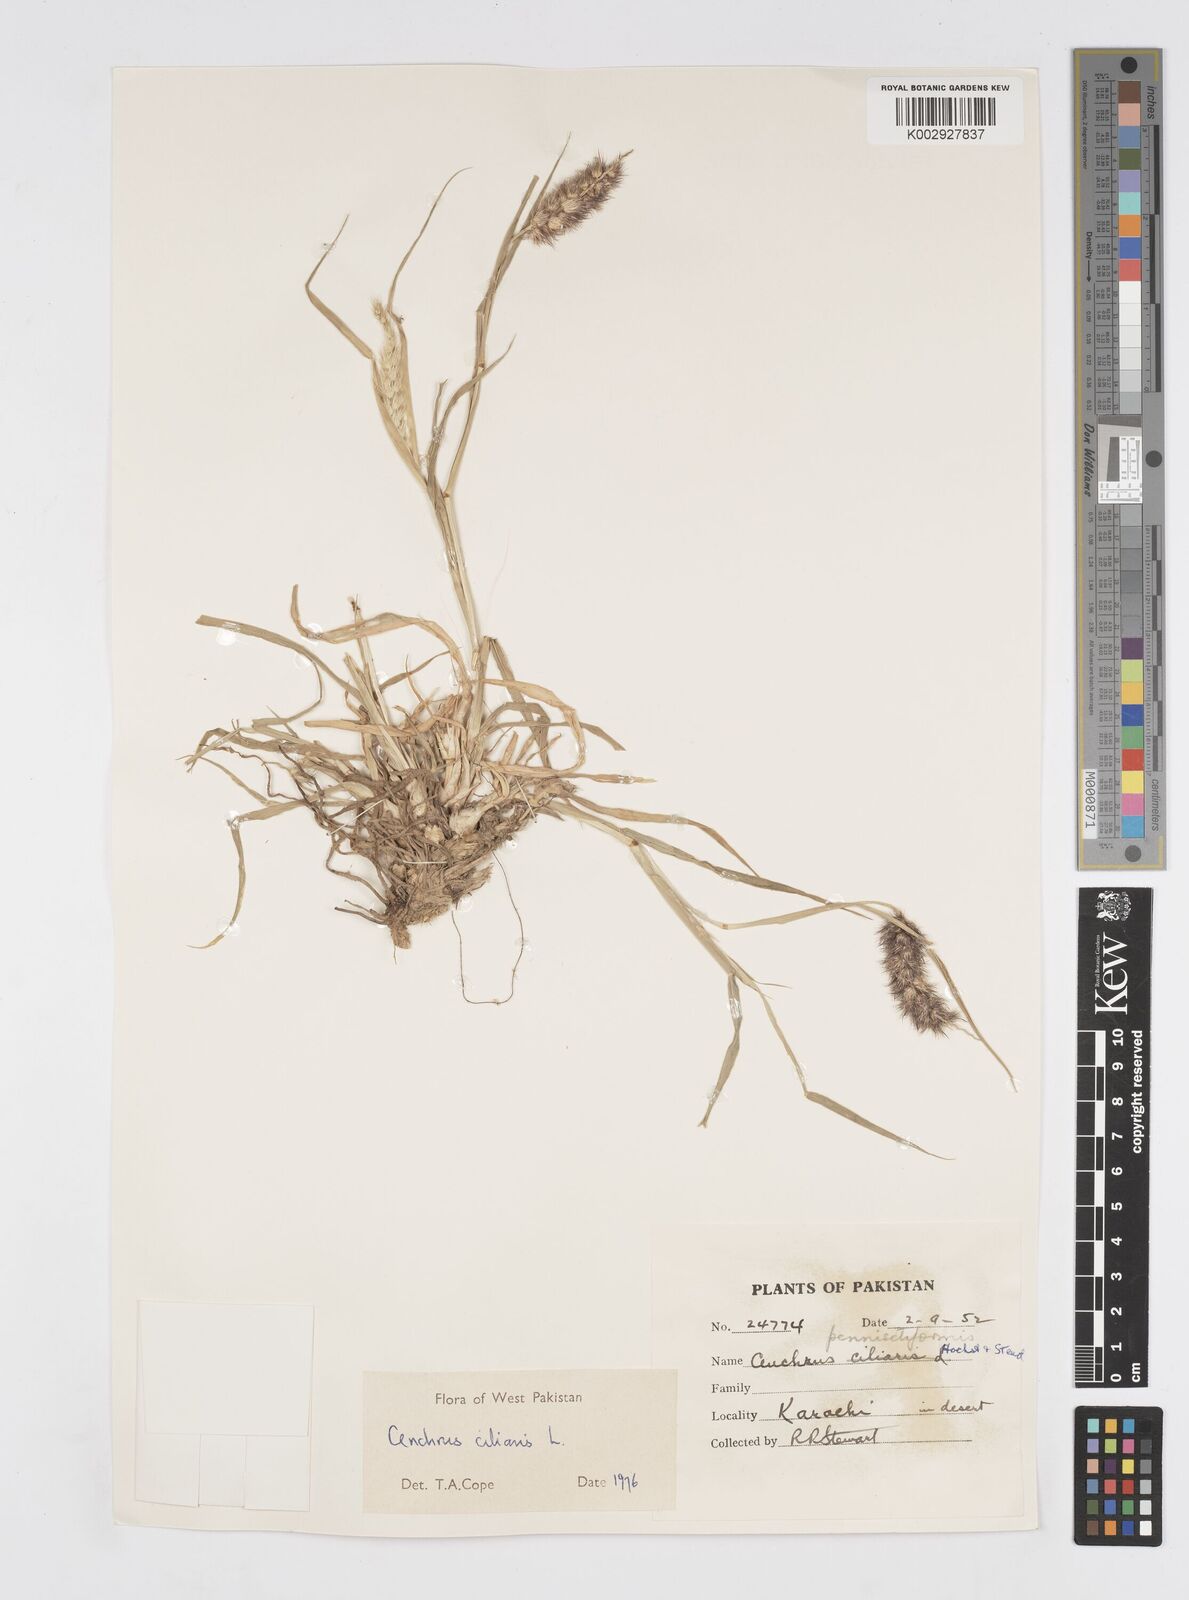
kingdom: Plantae
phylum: Tracheophyta
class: Liliopsida
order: Poales
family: Poaceae
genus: Cenchrus
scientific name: Cenchrus ciliaris
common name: Buffelgrass
